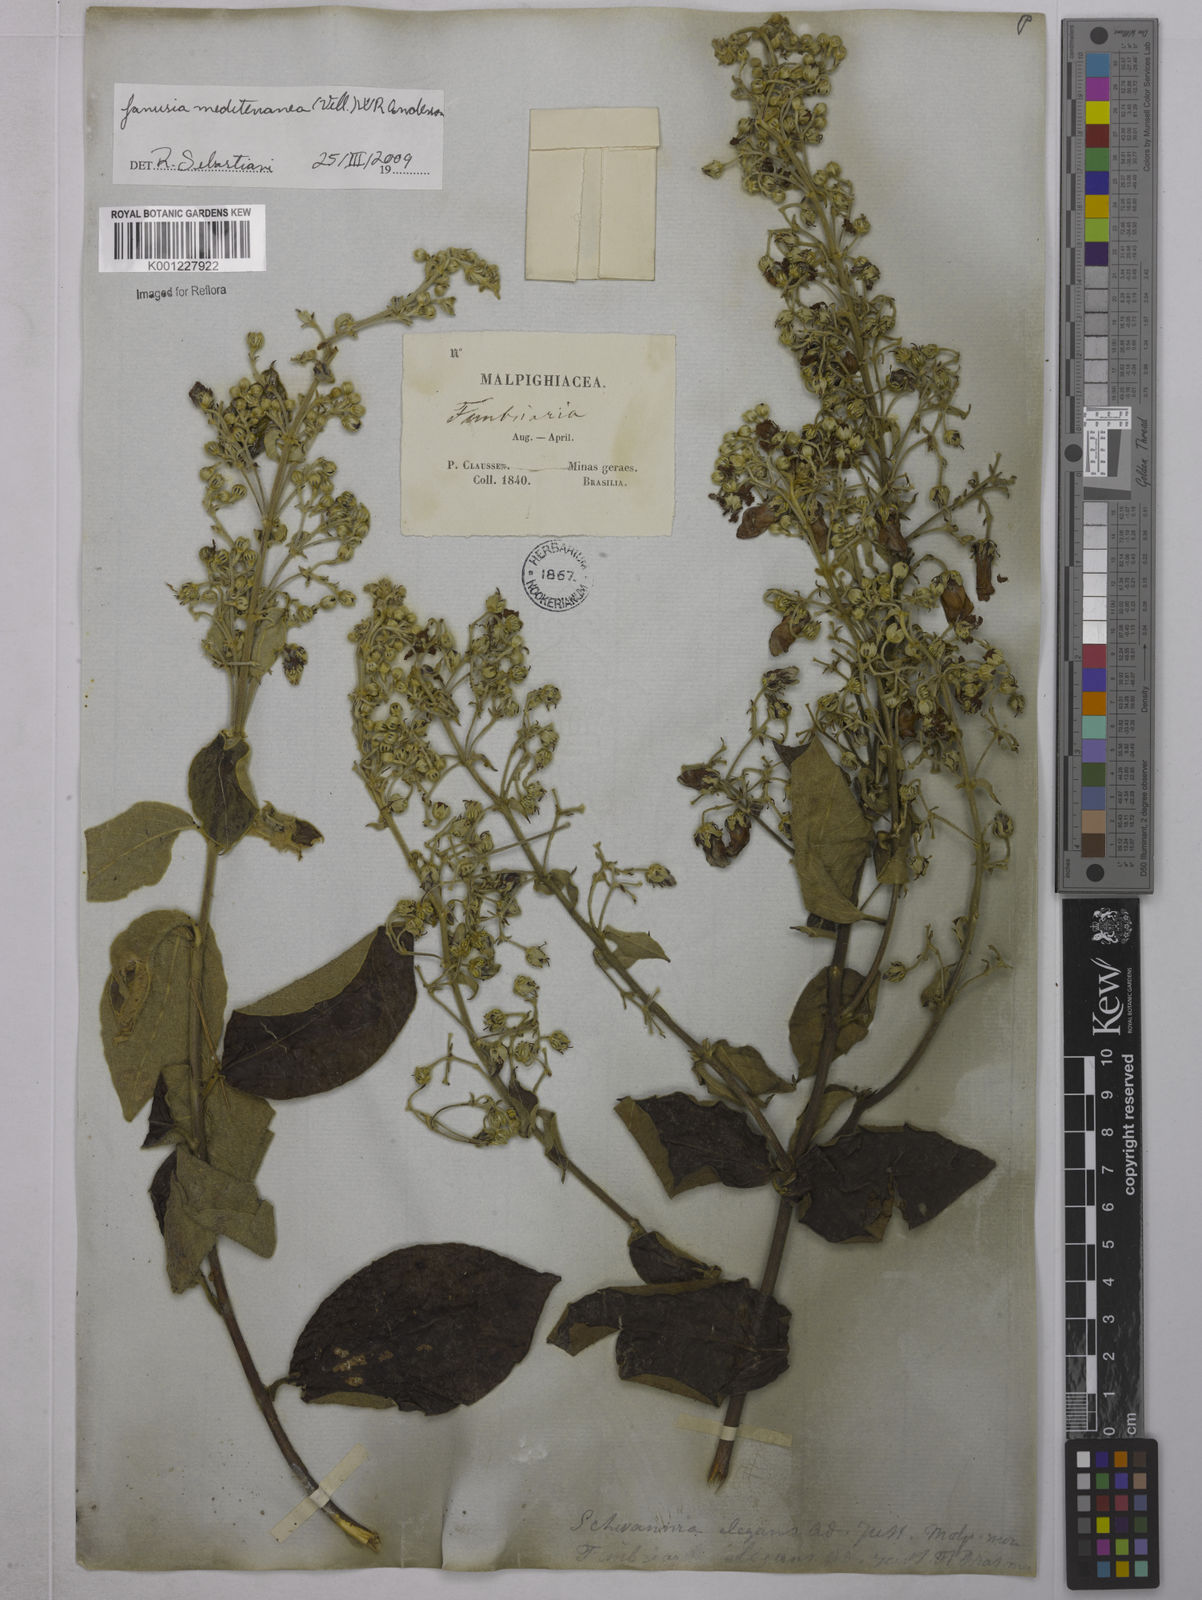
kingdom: Plantae
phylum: Tracheophyta
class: Magnoliopsida
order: Malpighiales
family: Malpighiaceae
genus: Janusia
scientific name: Janusia mediterranea
